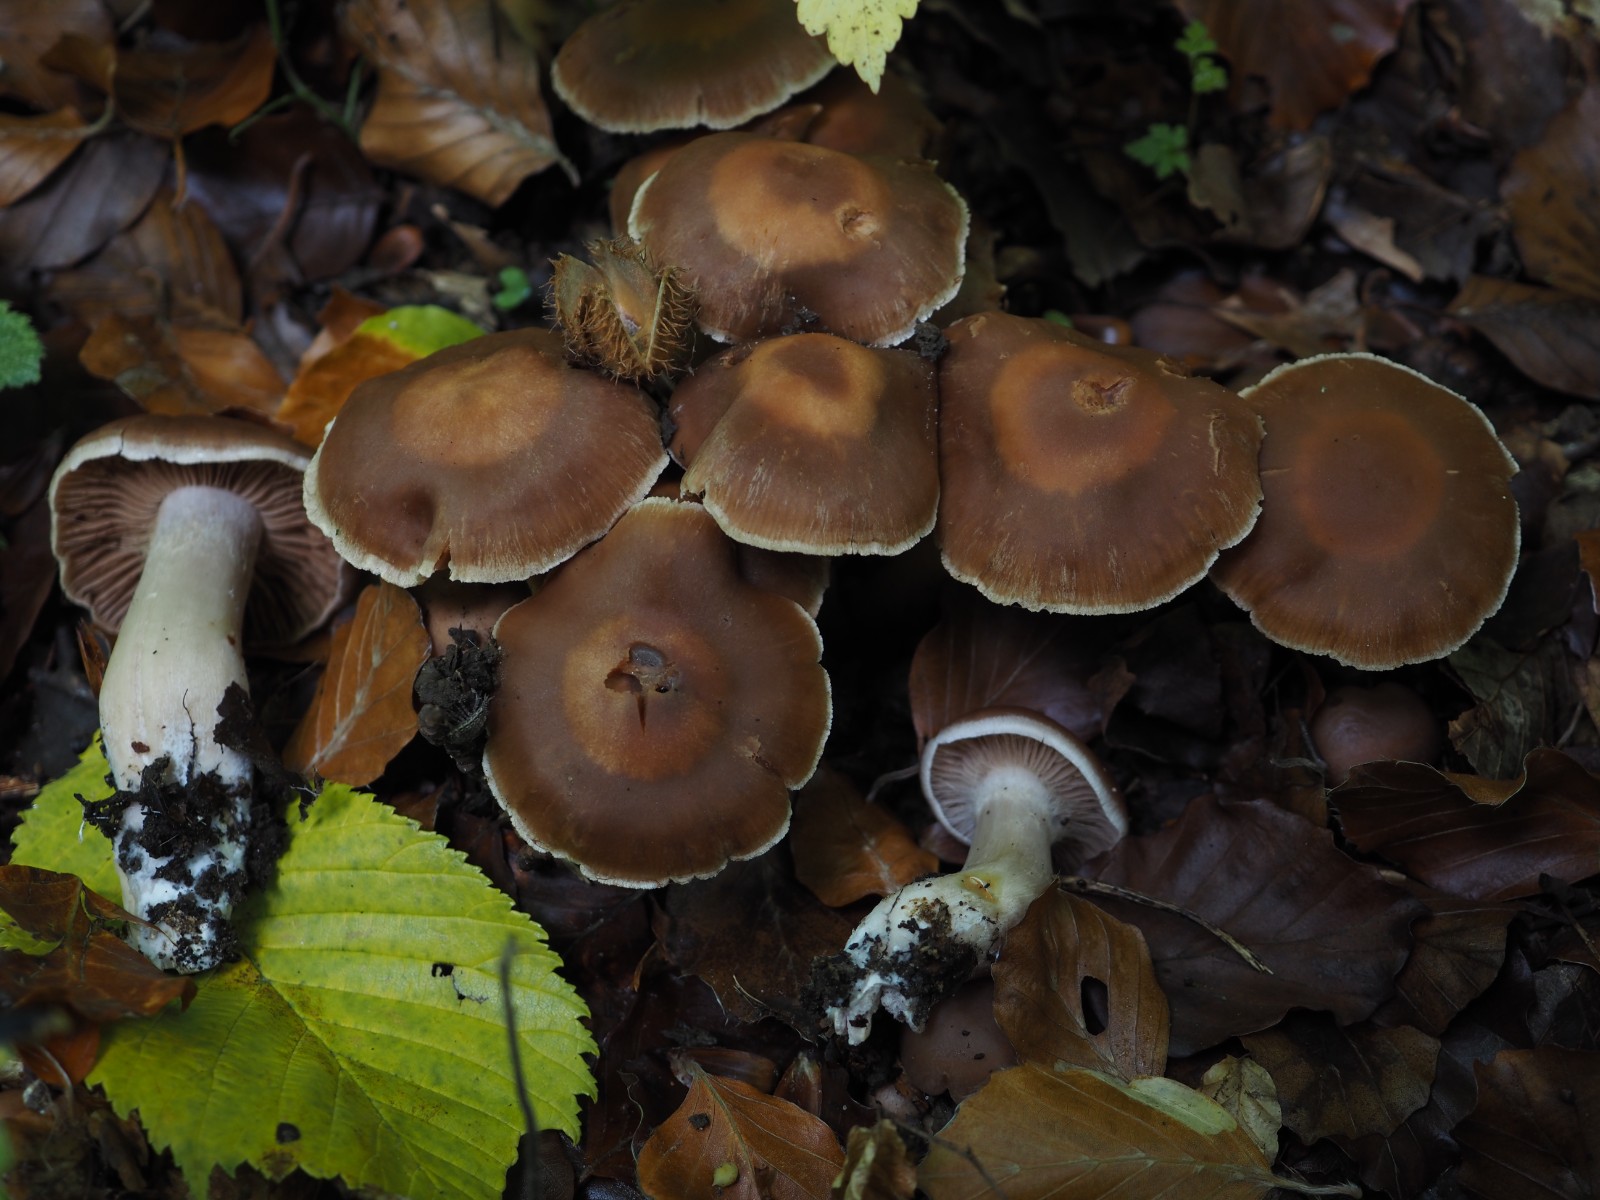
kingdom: Fungi
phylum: Basidiomycota
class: Agaricomycetes
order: Agaricales
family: Cortinariaceae
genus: Cortinarius
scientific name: Cortinarius spisnii
